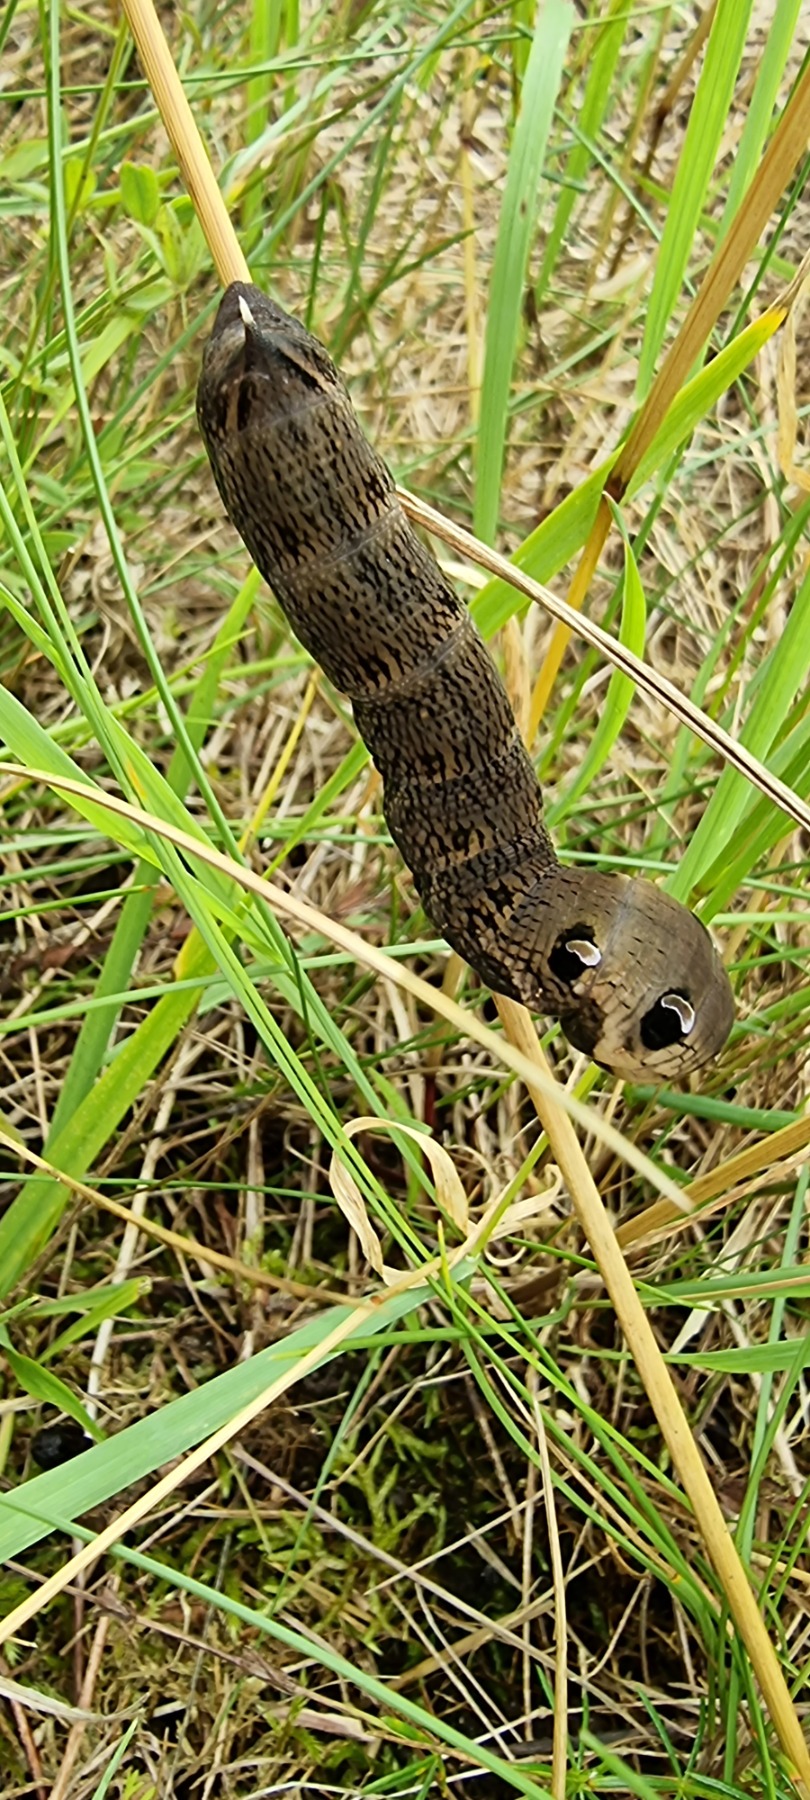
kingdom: Animalia
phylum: Arthropoda
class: Insecta
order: Lepidoptera
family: Sphingidae
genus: Deilephila
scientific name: Deilephila elpenor
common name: Dueurtsværmer
